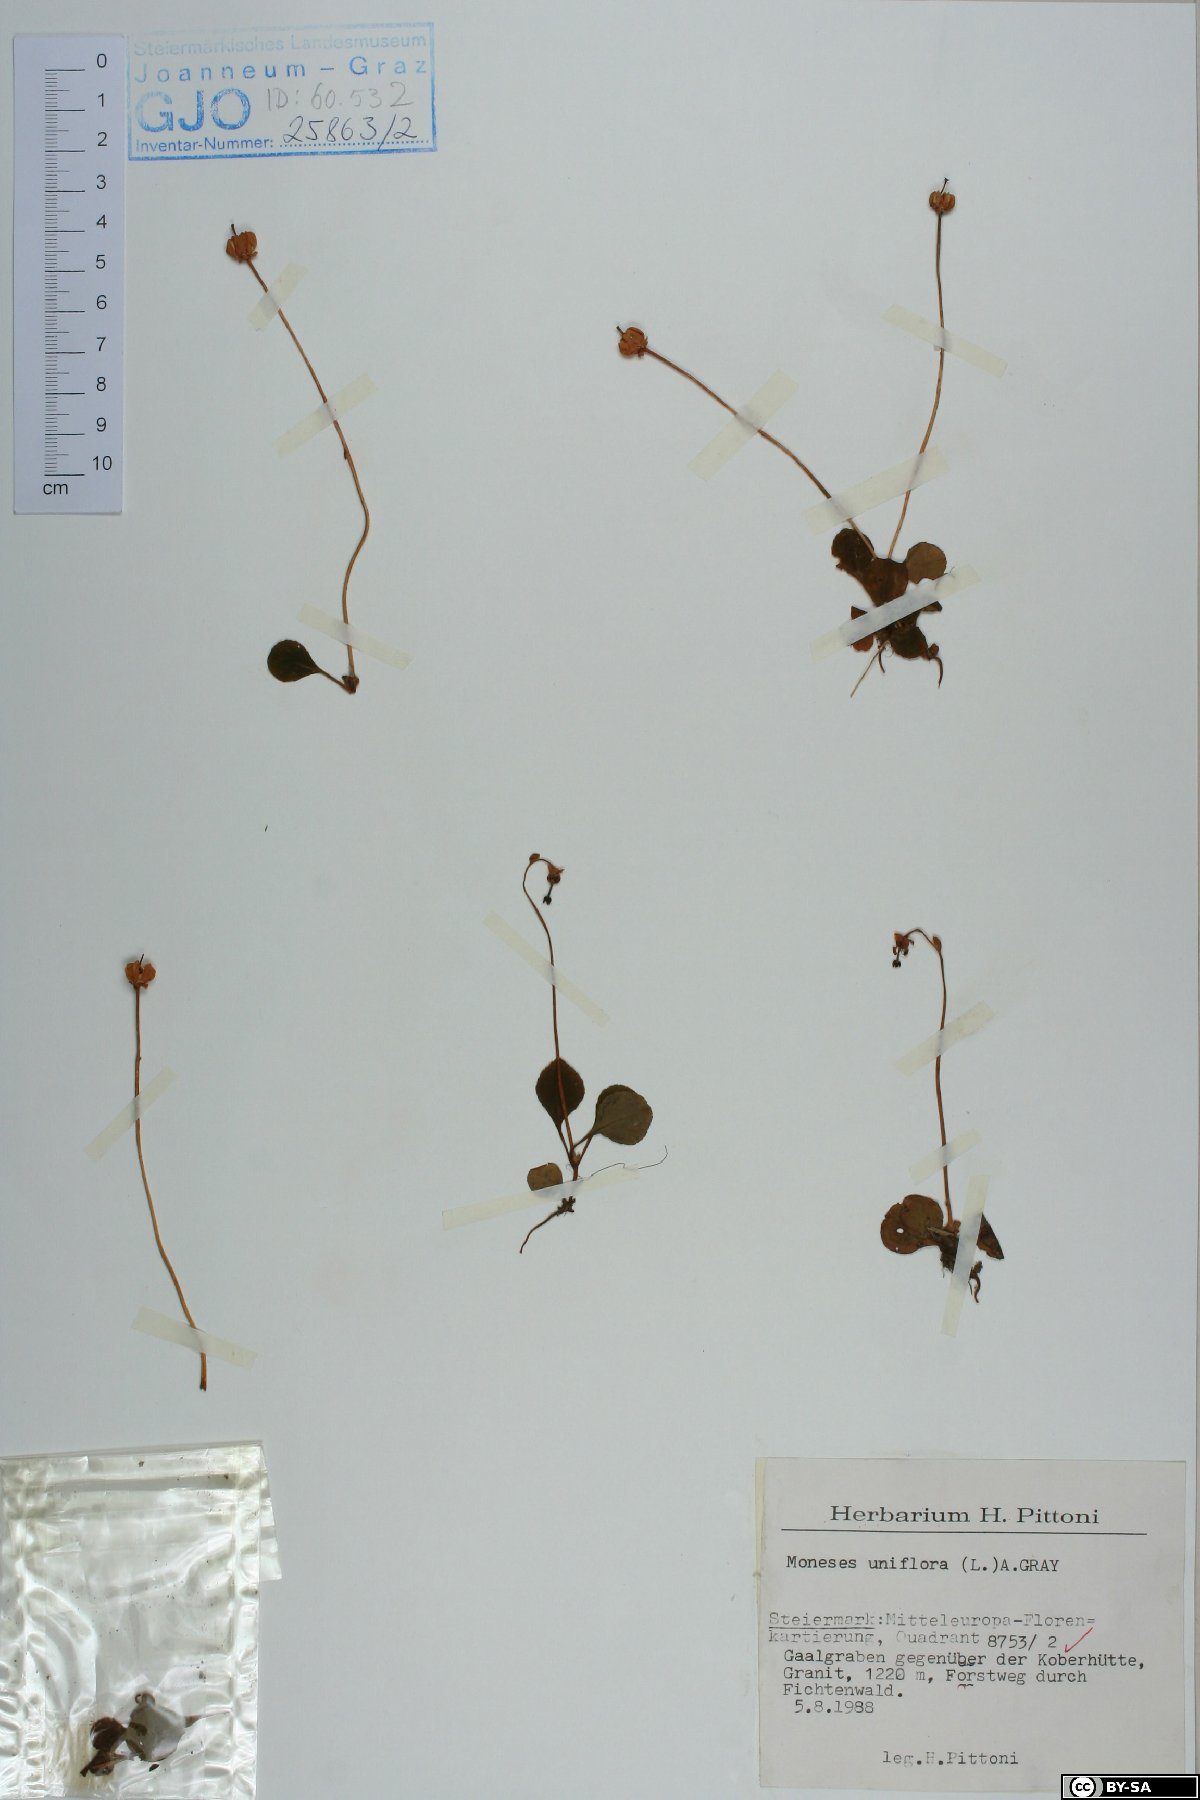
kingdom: Plantae
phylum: Tracheophyta
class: Magnoliopsida
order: Ericales
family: Ericaceae
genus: Moneses
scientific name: Moneses uniflora
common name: One-flowered wintergreen
